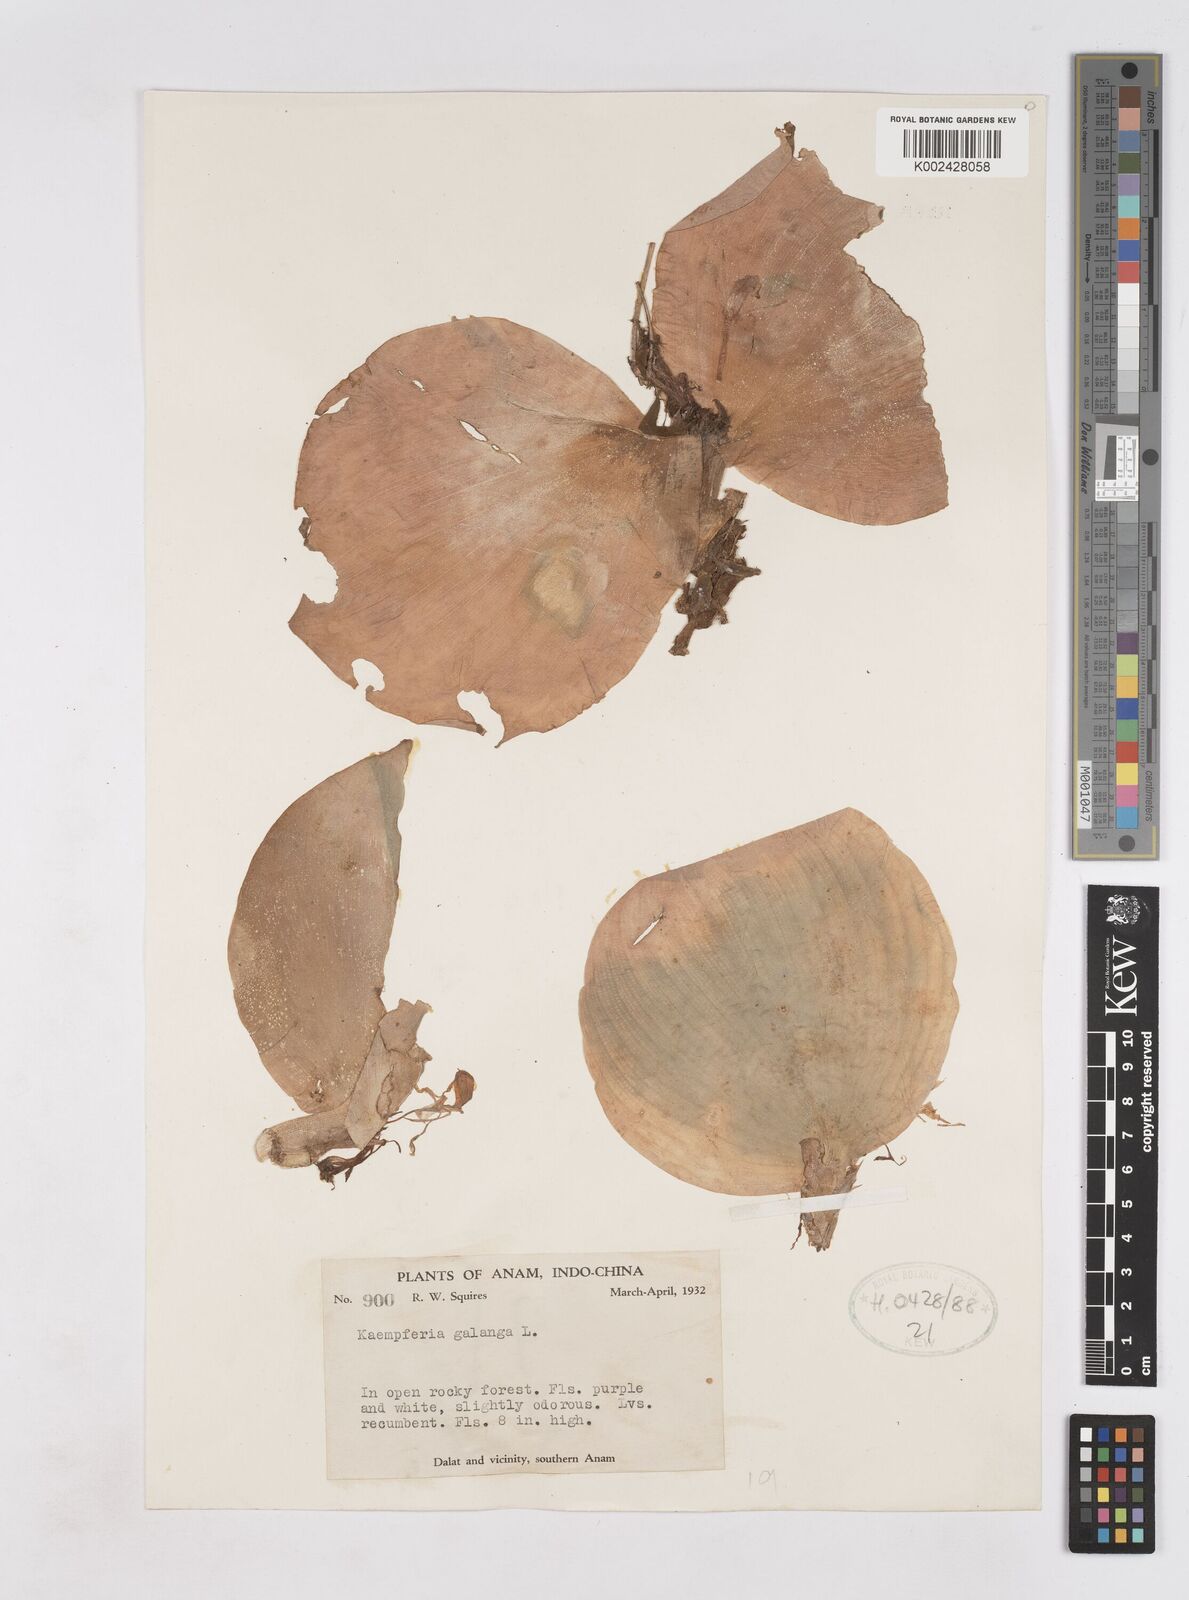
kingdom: Plantae
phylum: Tracheophyta
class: Liliopsida
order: Zingiberales
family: Zingiberaceae
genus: Kaempferia
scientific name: Kaempferia galanga
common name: Aromatic ginger
